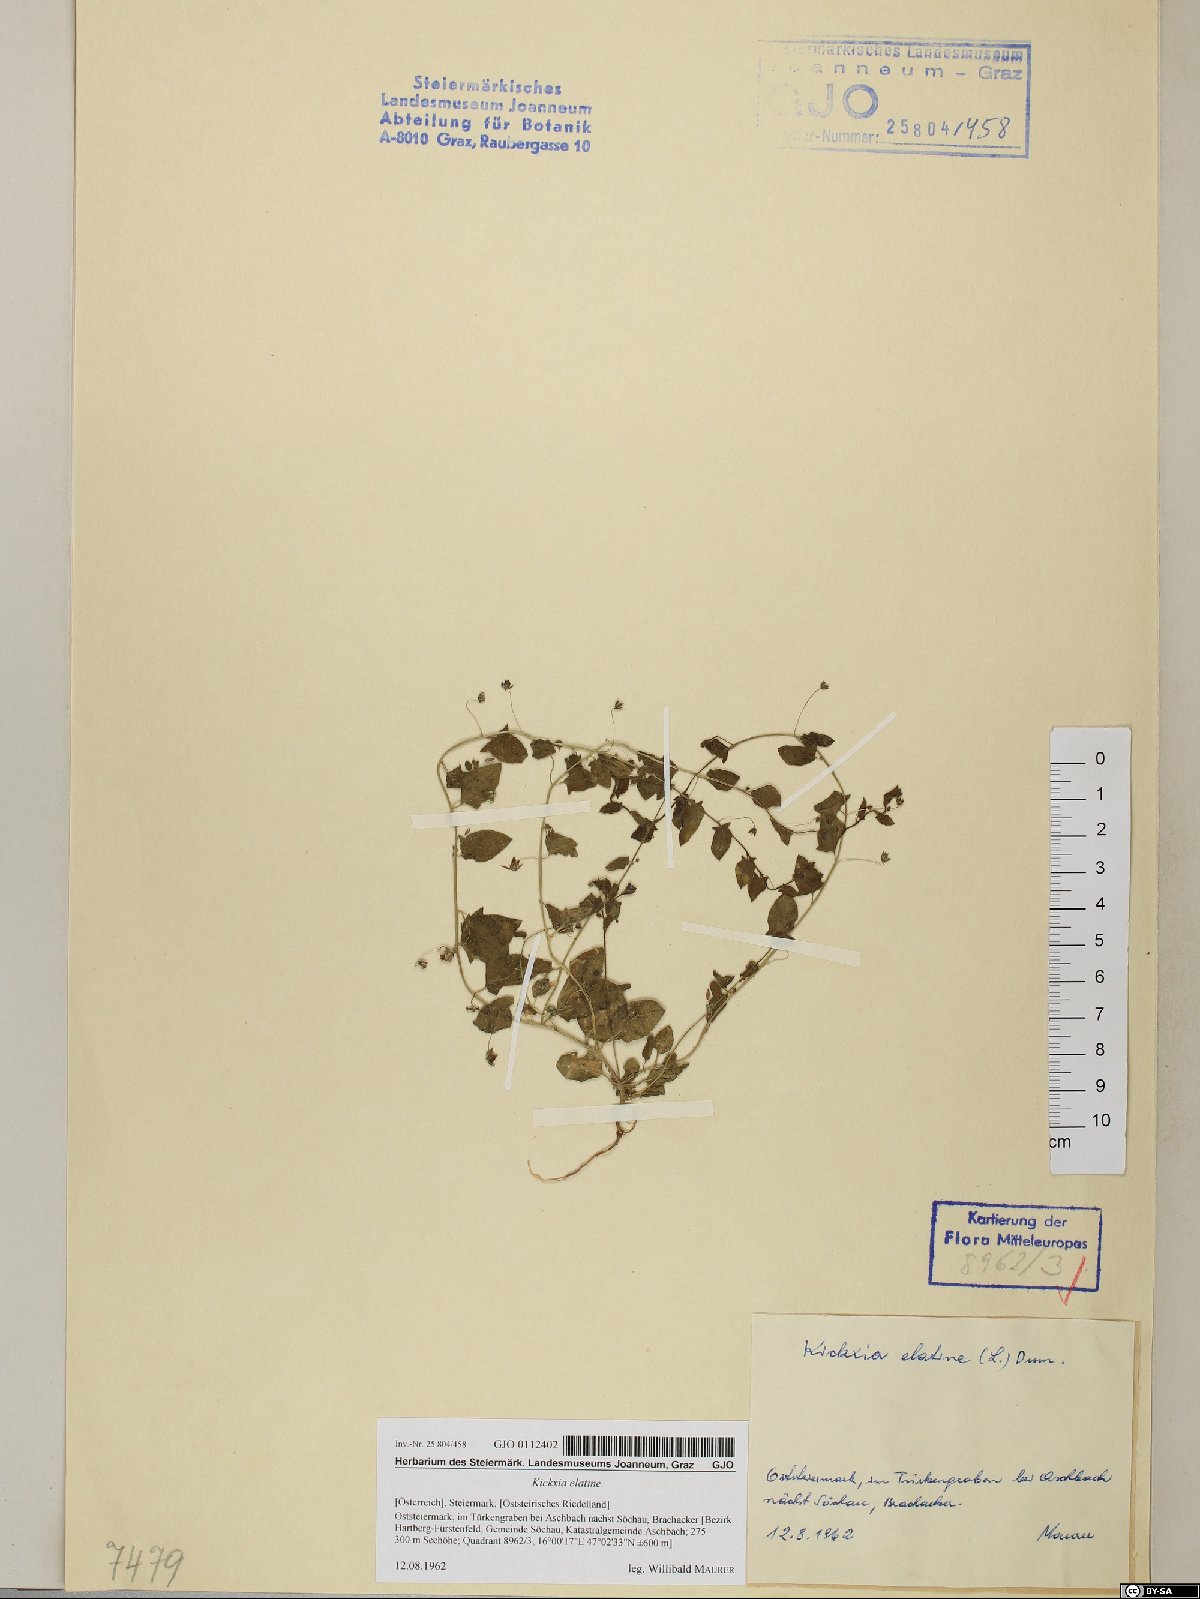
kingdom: Plantae
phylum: Tracheophyta
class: Magnoliopsida
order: Lamiales
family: Plantaginaceae
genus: Kickxia
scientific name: Kickxia elatine
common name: Sharp-leaved fluellen
